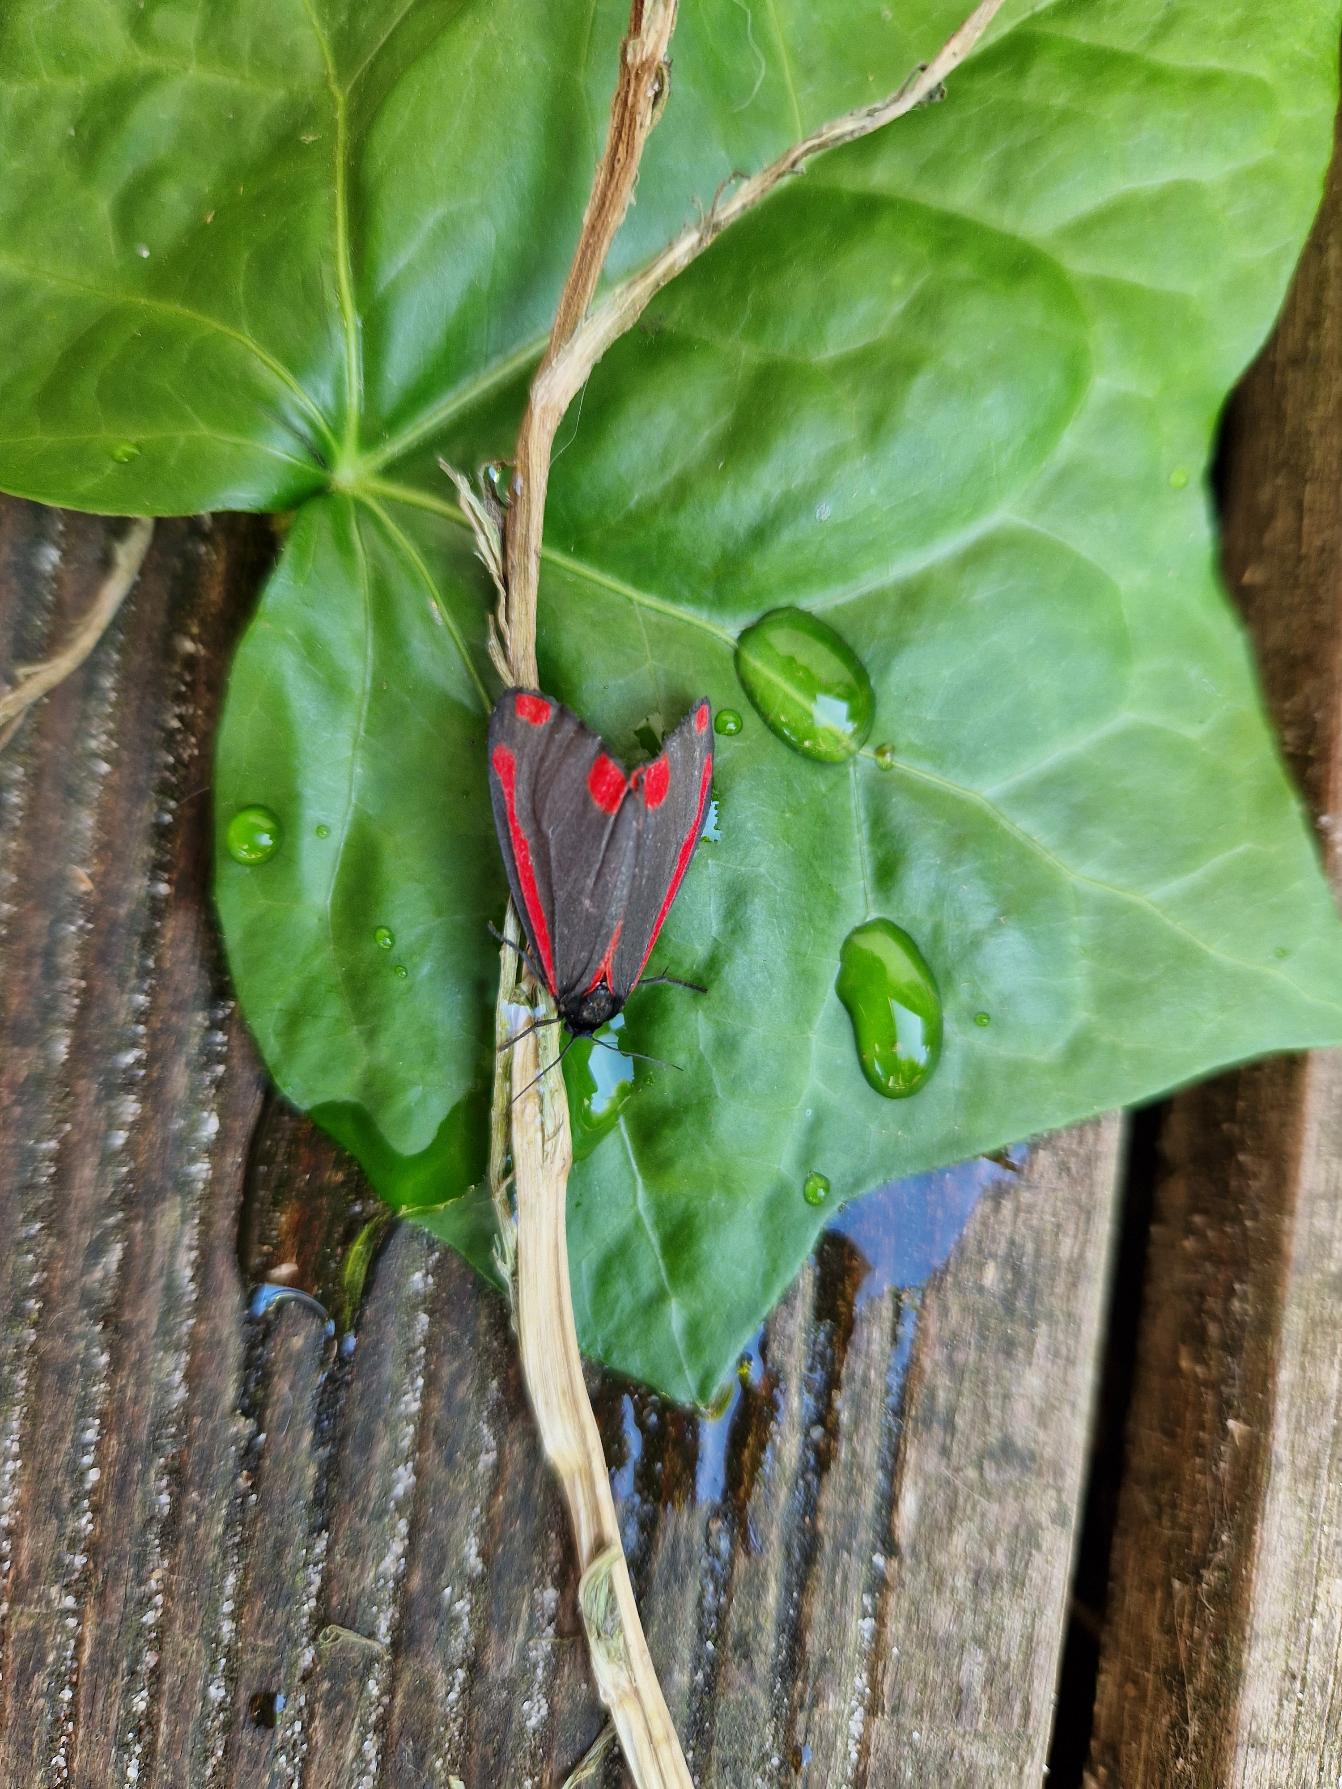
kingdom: Animalia
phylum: Arthropoda
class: Insecta
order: Lepidoptera
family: Erebidae
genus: Tyria
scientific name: Tyria jacobaeae
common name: Blodplet
